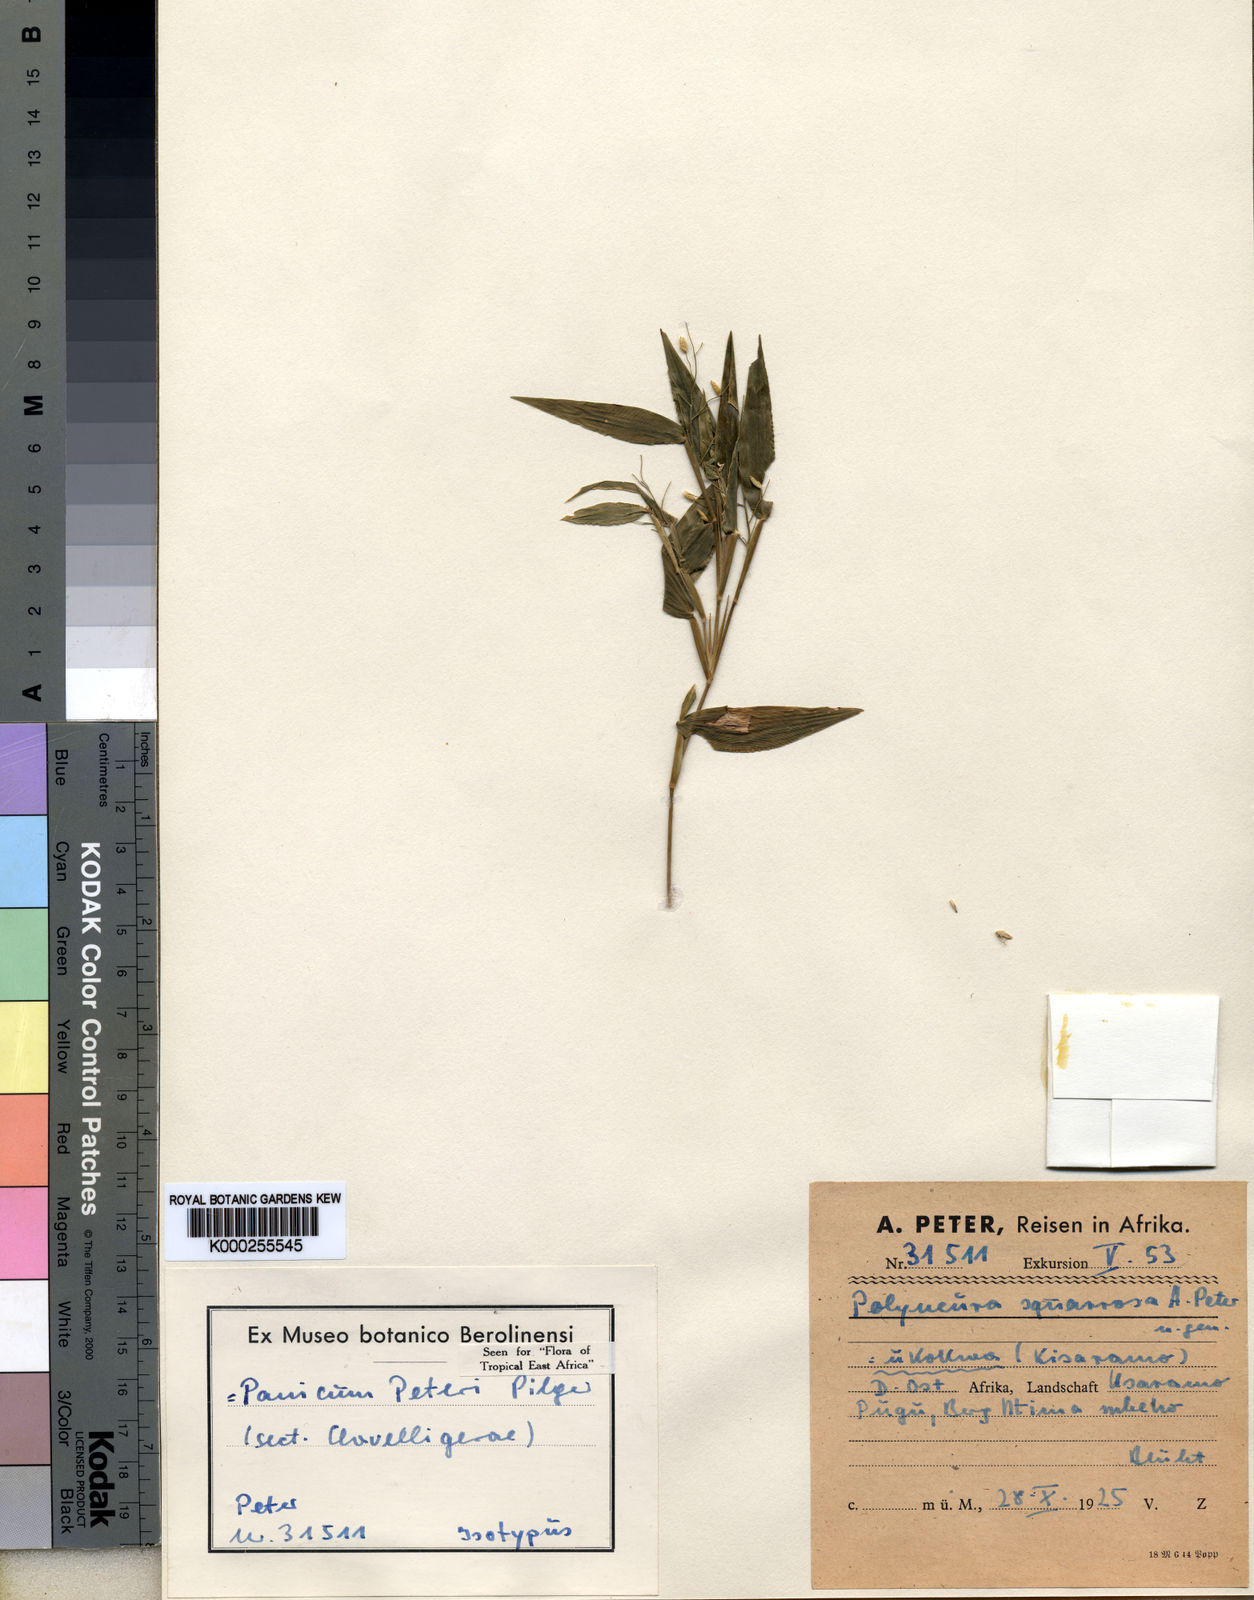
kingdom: Plantae
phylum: Tracheophyta
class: Liliopsida
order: Poales
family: Poaceae
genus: Adenochloa
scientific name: Adenochloa squarrosa
